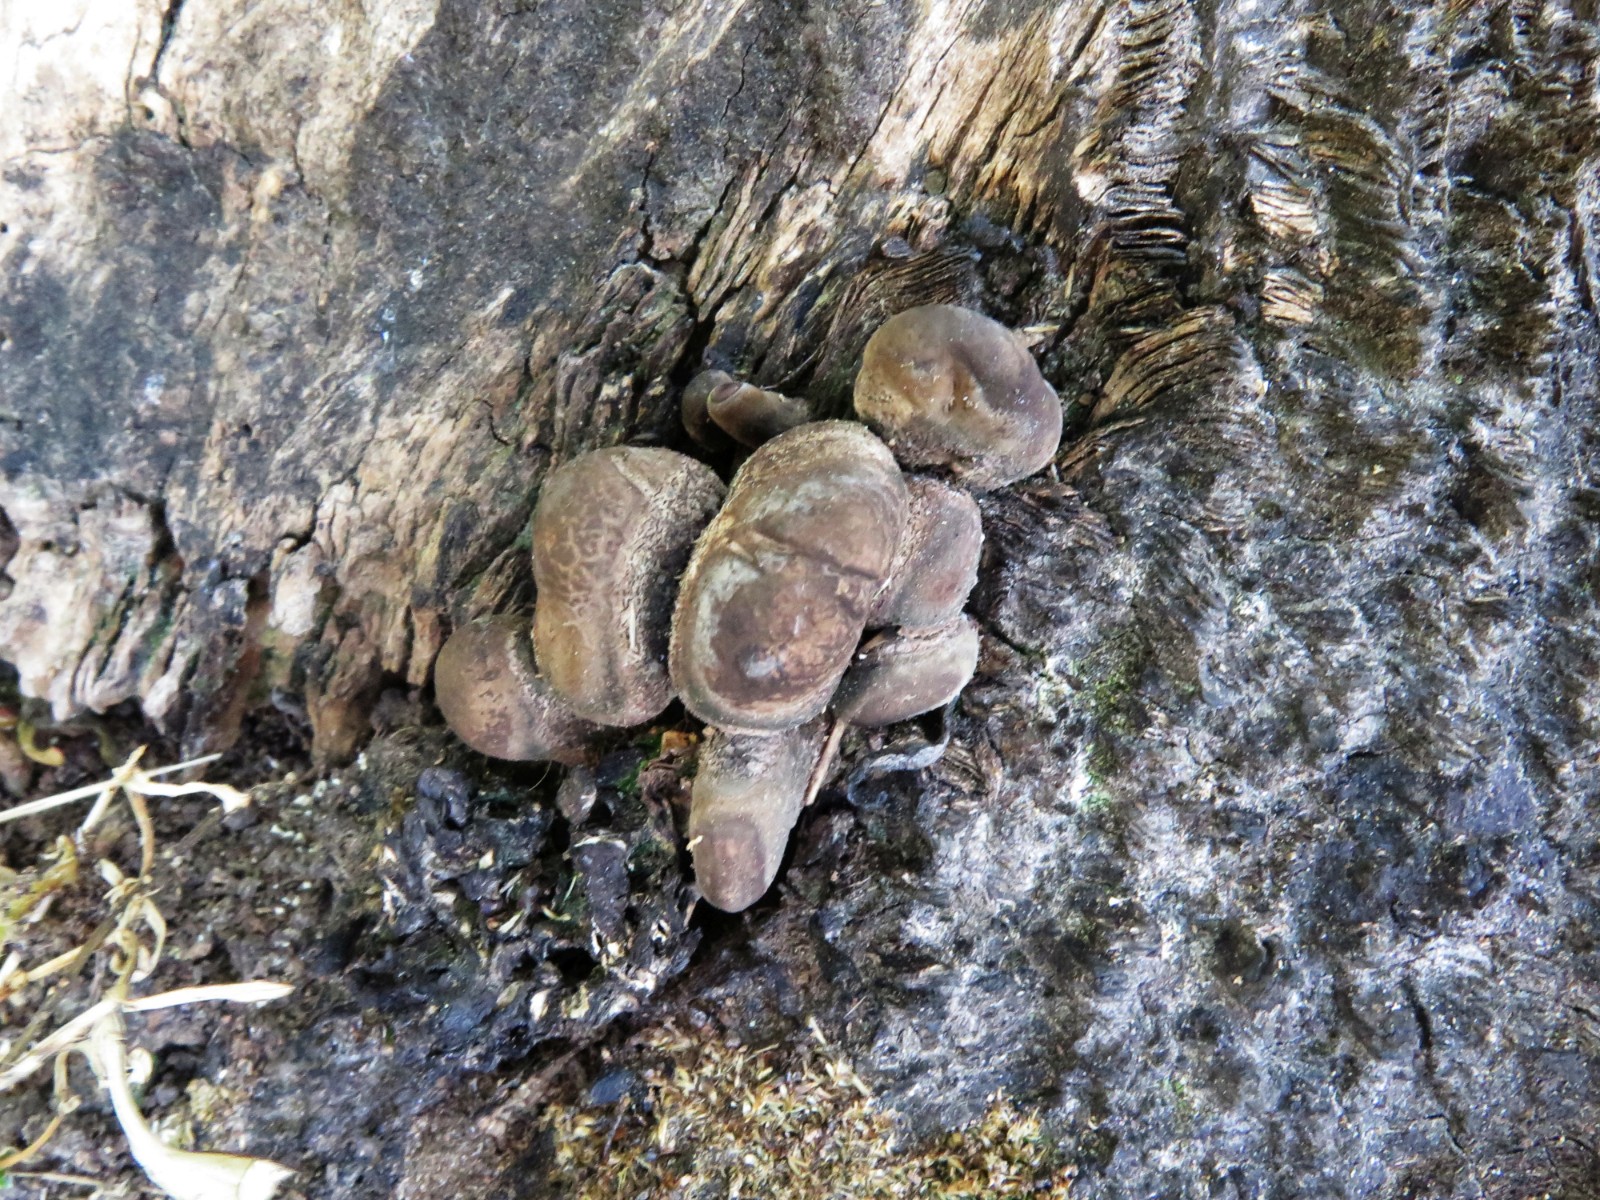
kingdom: Fungi
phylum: Ascomycota
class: Sordariomycetes
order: Xylariales
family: Xylariaceae
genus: Xylaria
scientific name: Xylaria polymorpha
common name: kølle-stødsvamp
